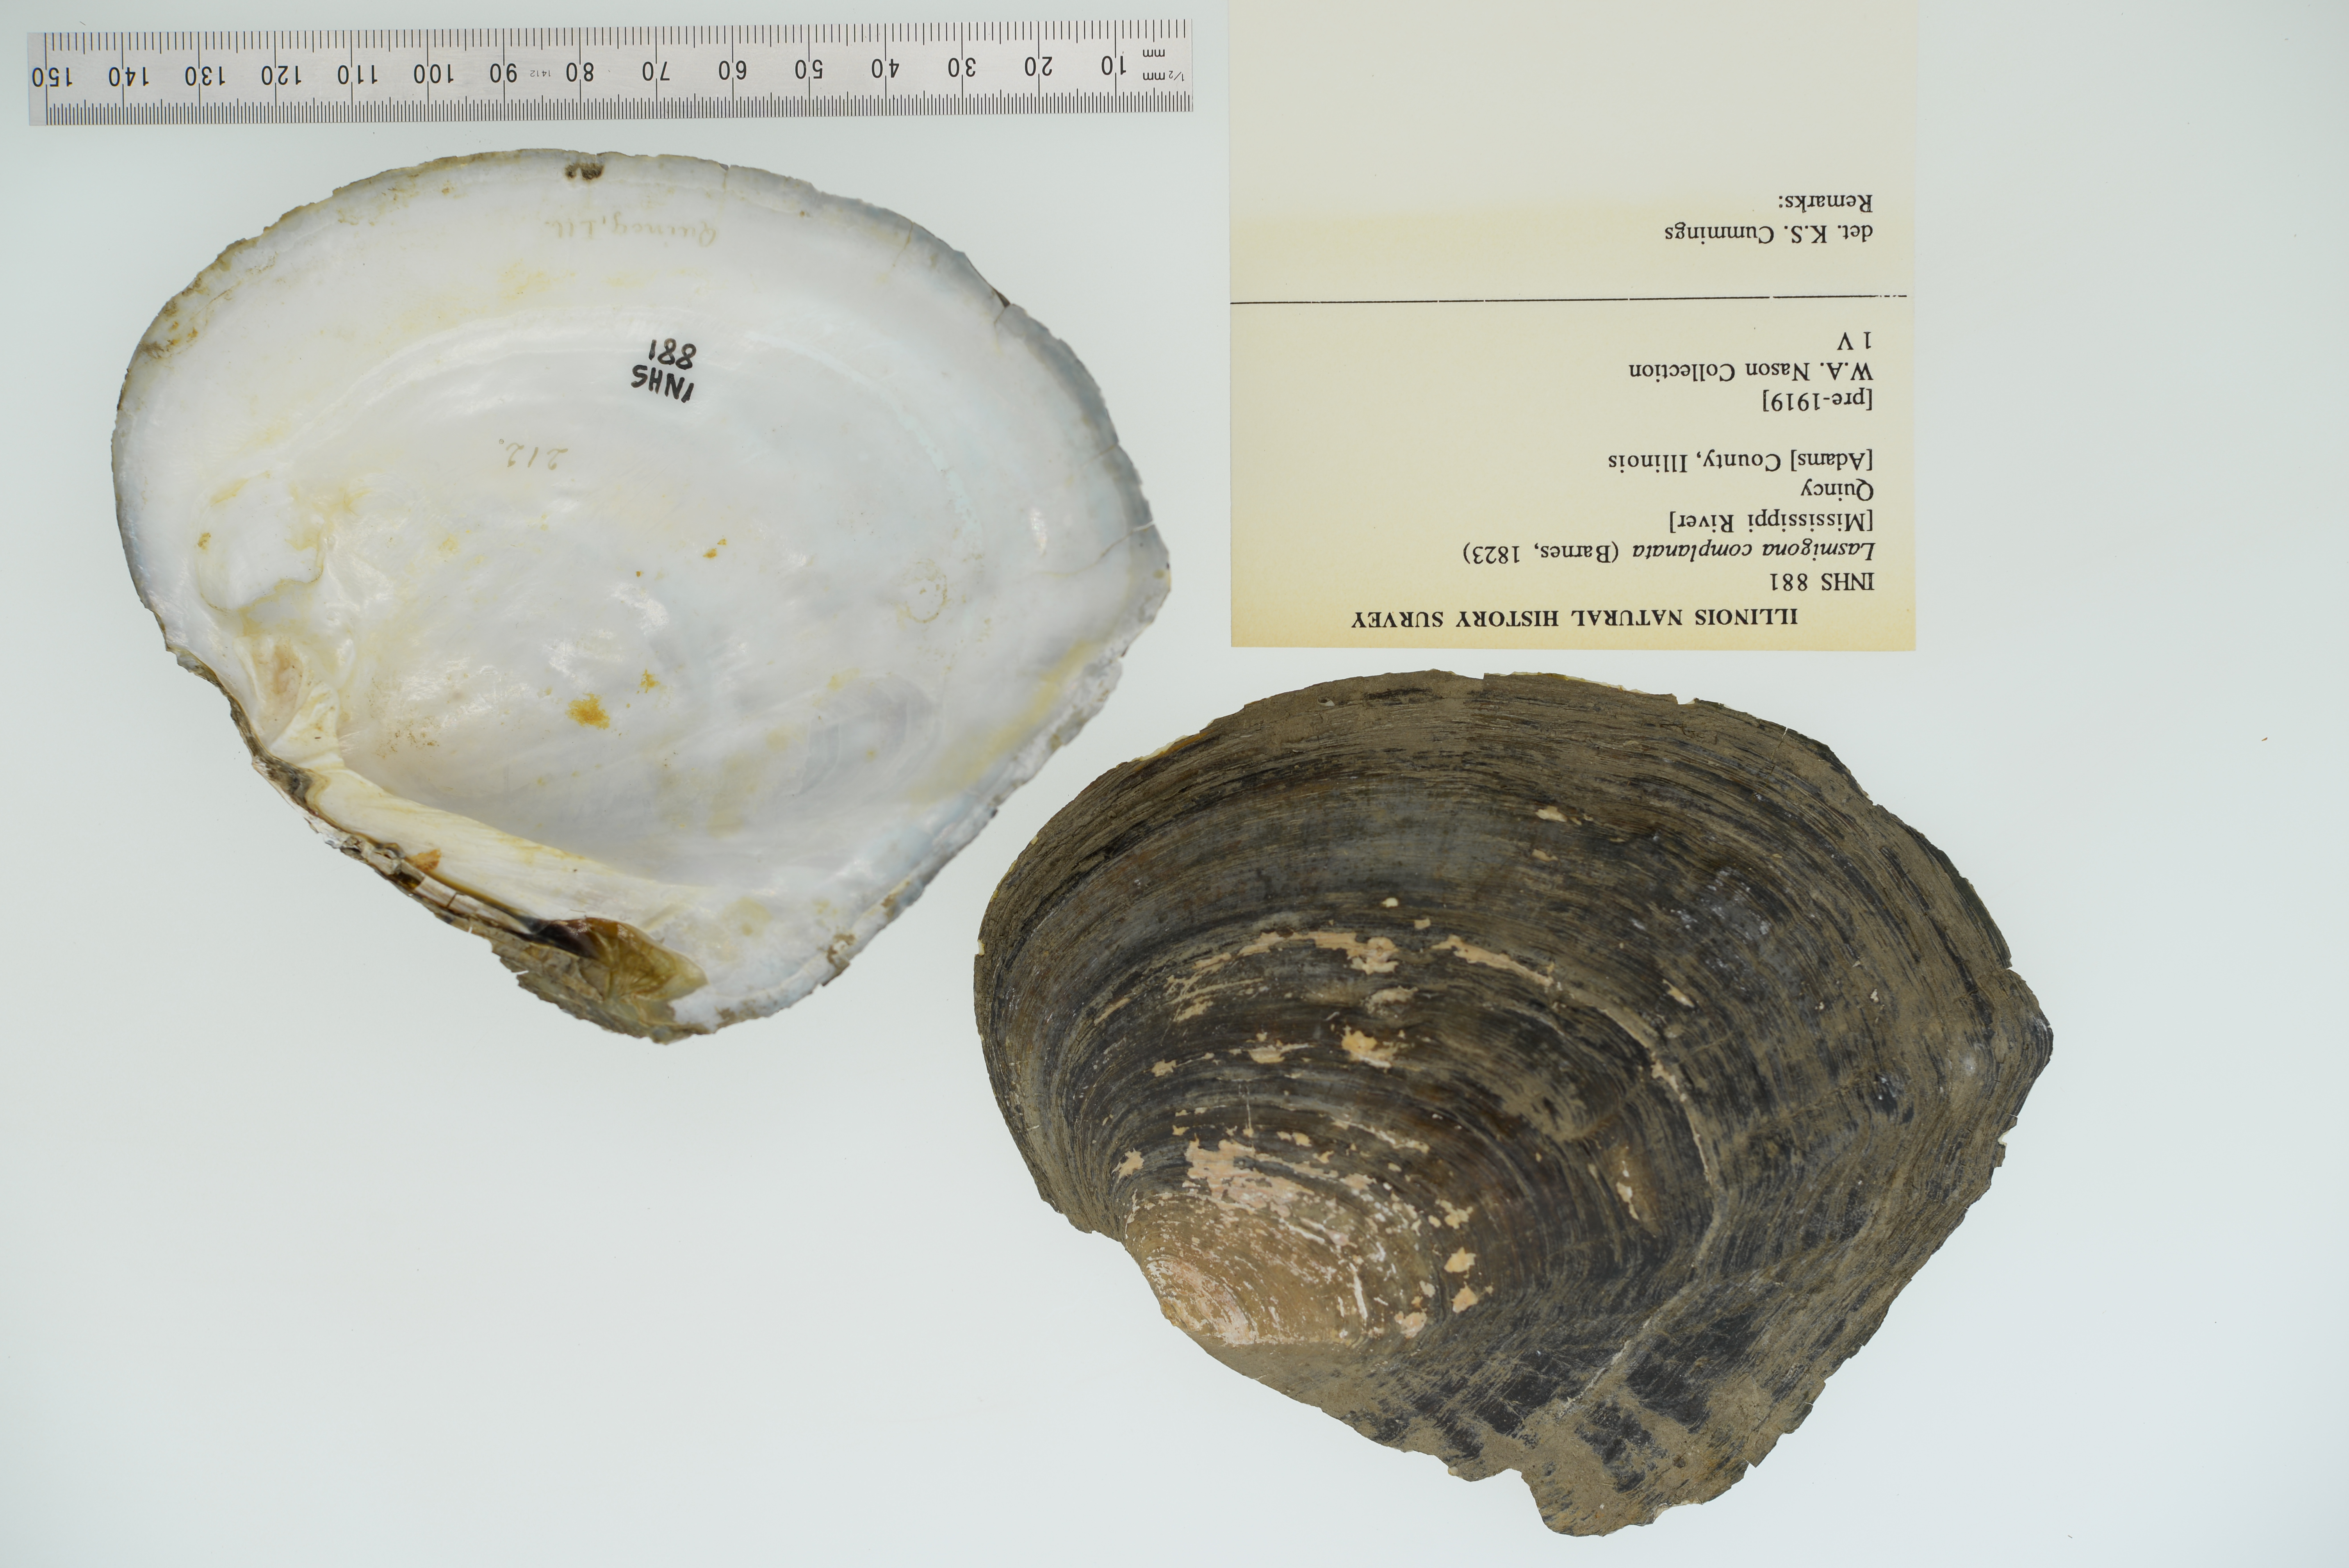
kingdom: Animalia
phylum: Mollusca
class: Bivalvia
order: Unionida
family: Unionidae
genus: Lasmigona
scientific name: Lasmigona complanata
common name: White heelsplitter
